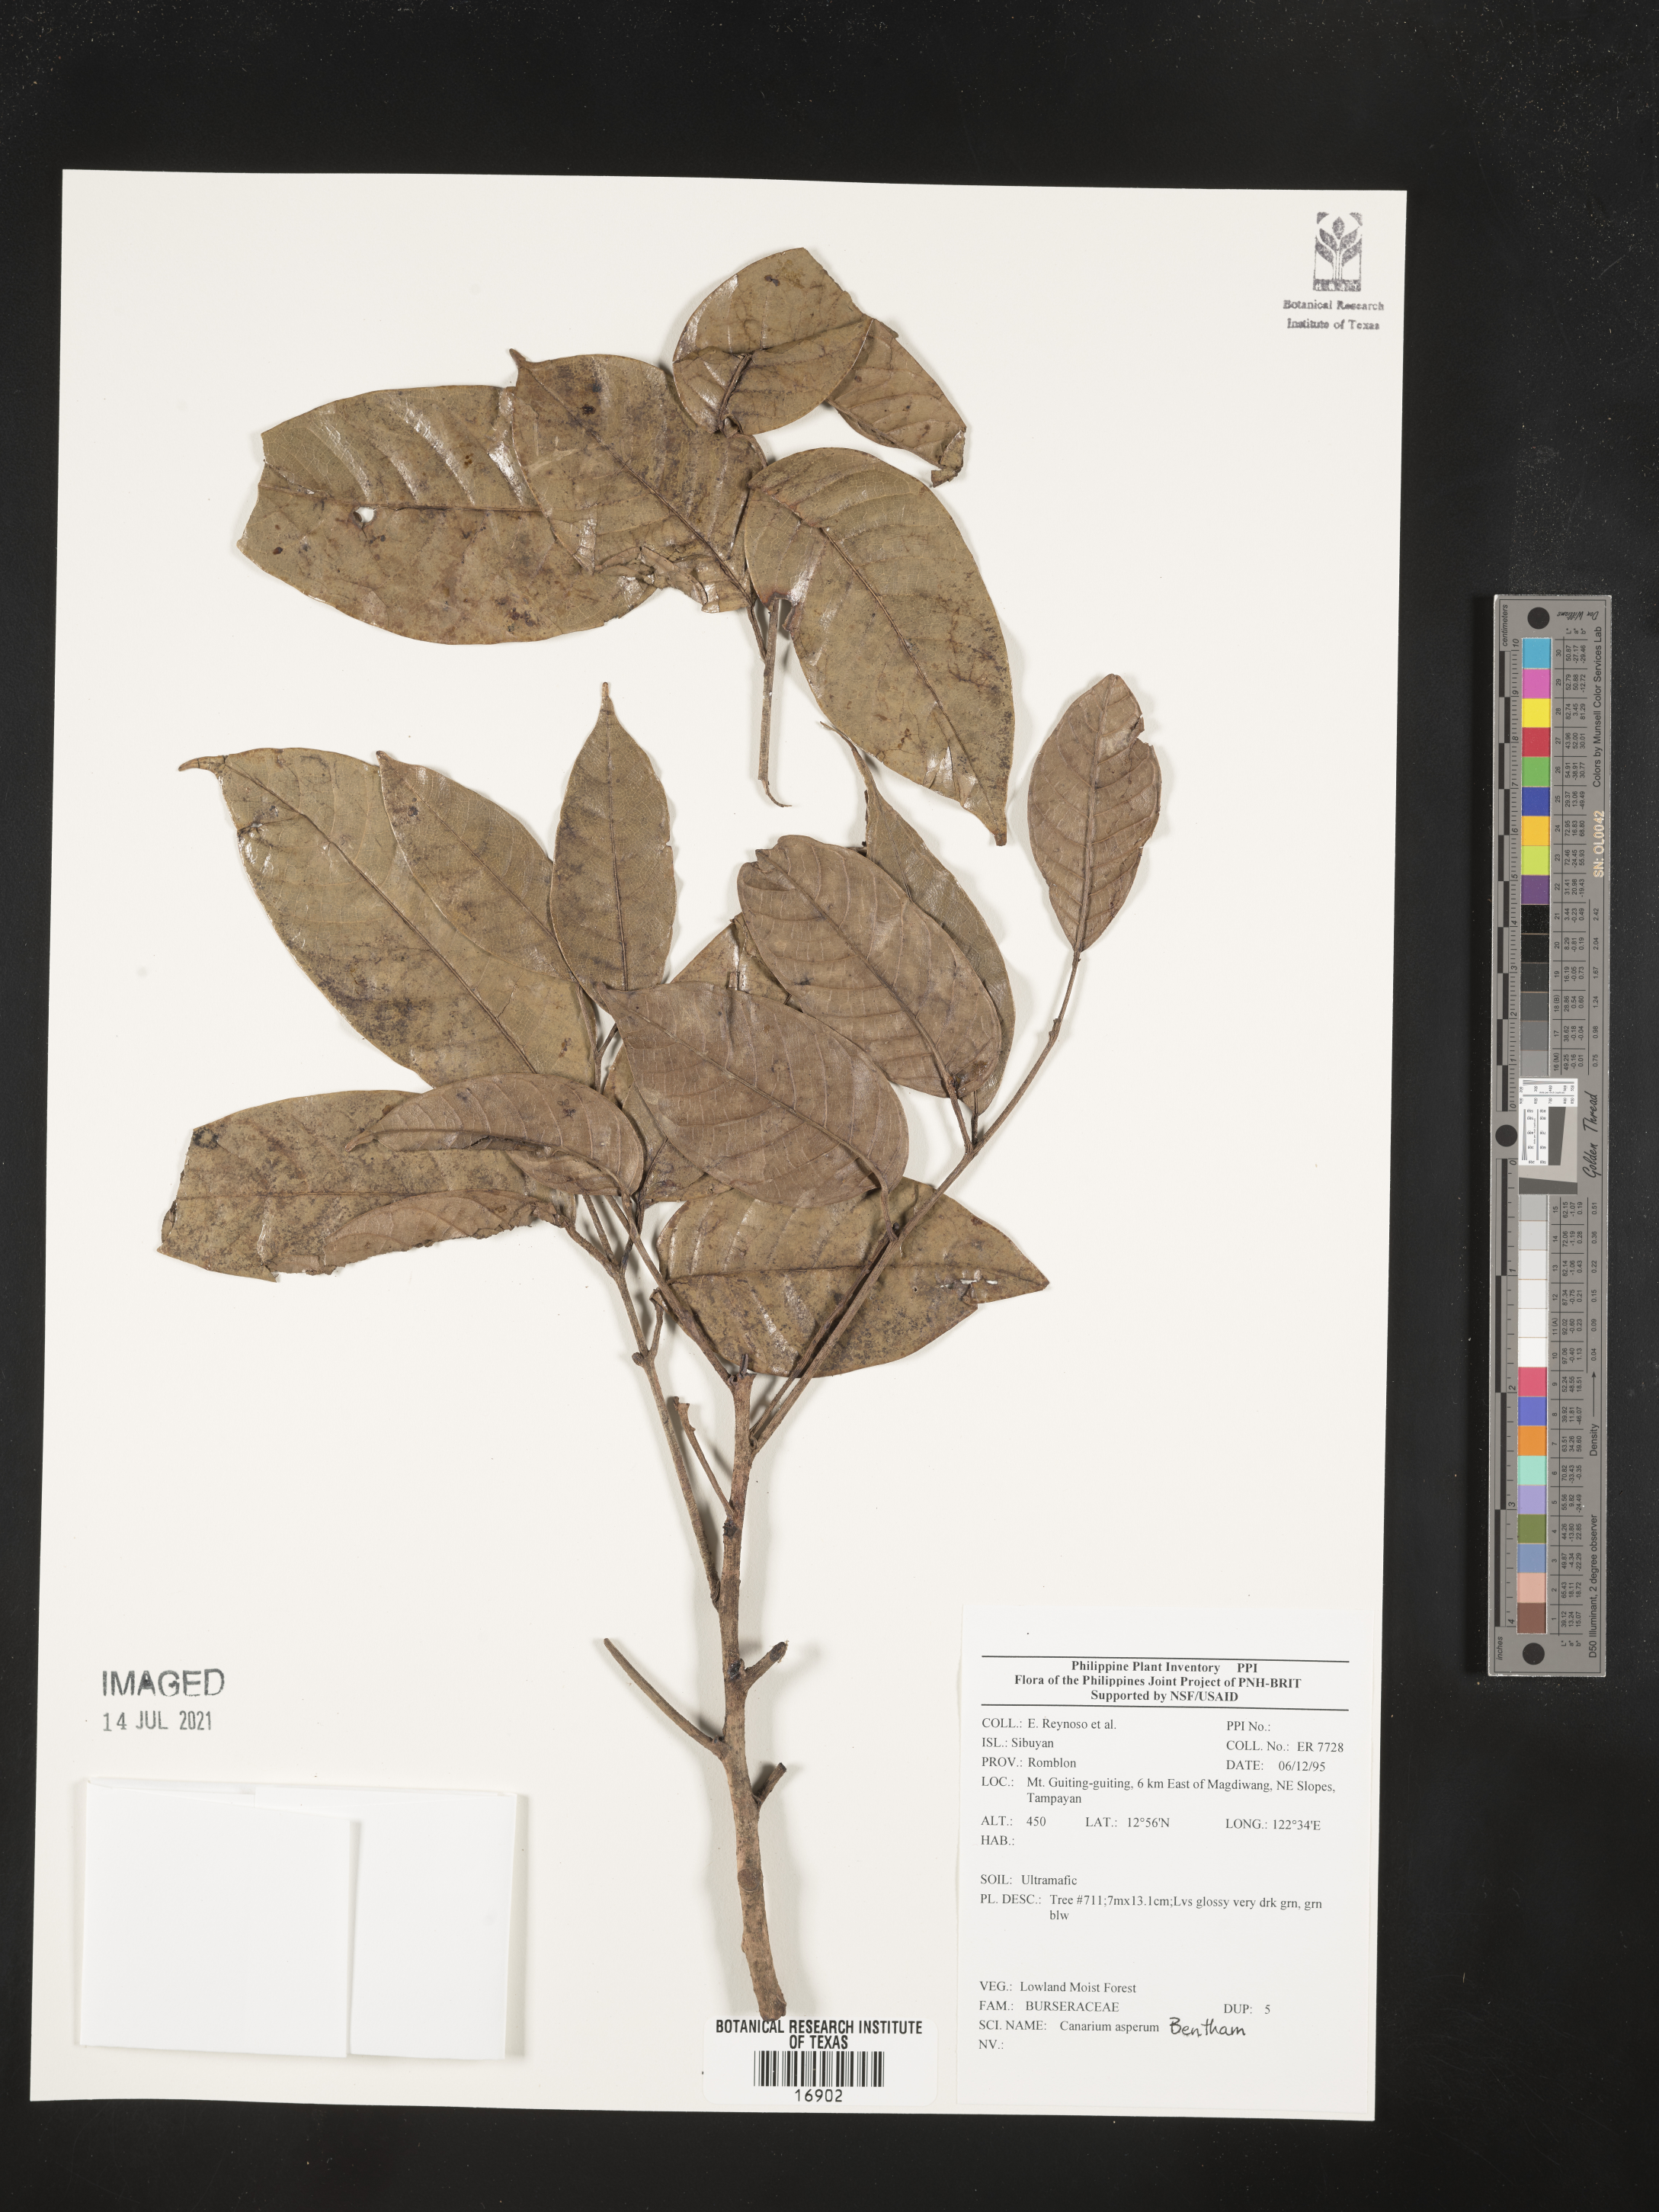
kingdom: Plantae
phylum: Tracheophyta
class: Magnoliopsida
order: Sapindales
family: Burseraceae
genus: Canarium
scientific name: Canarium asperum
